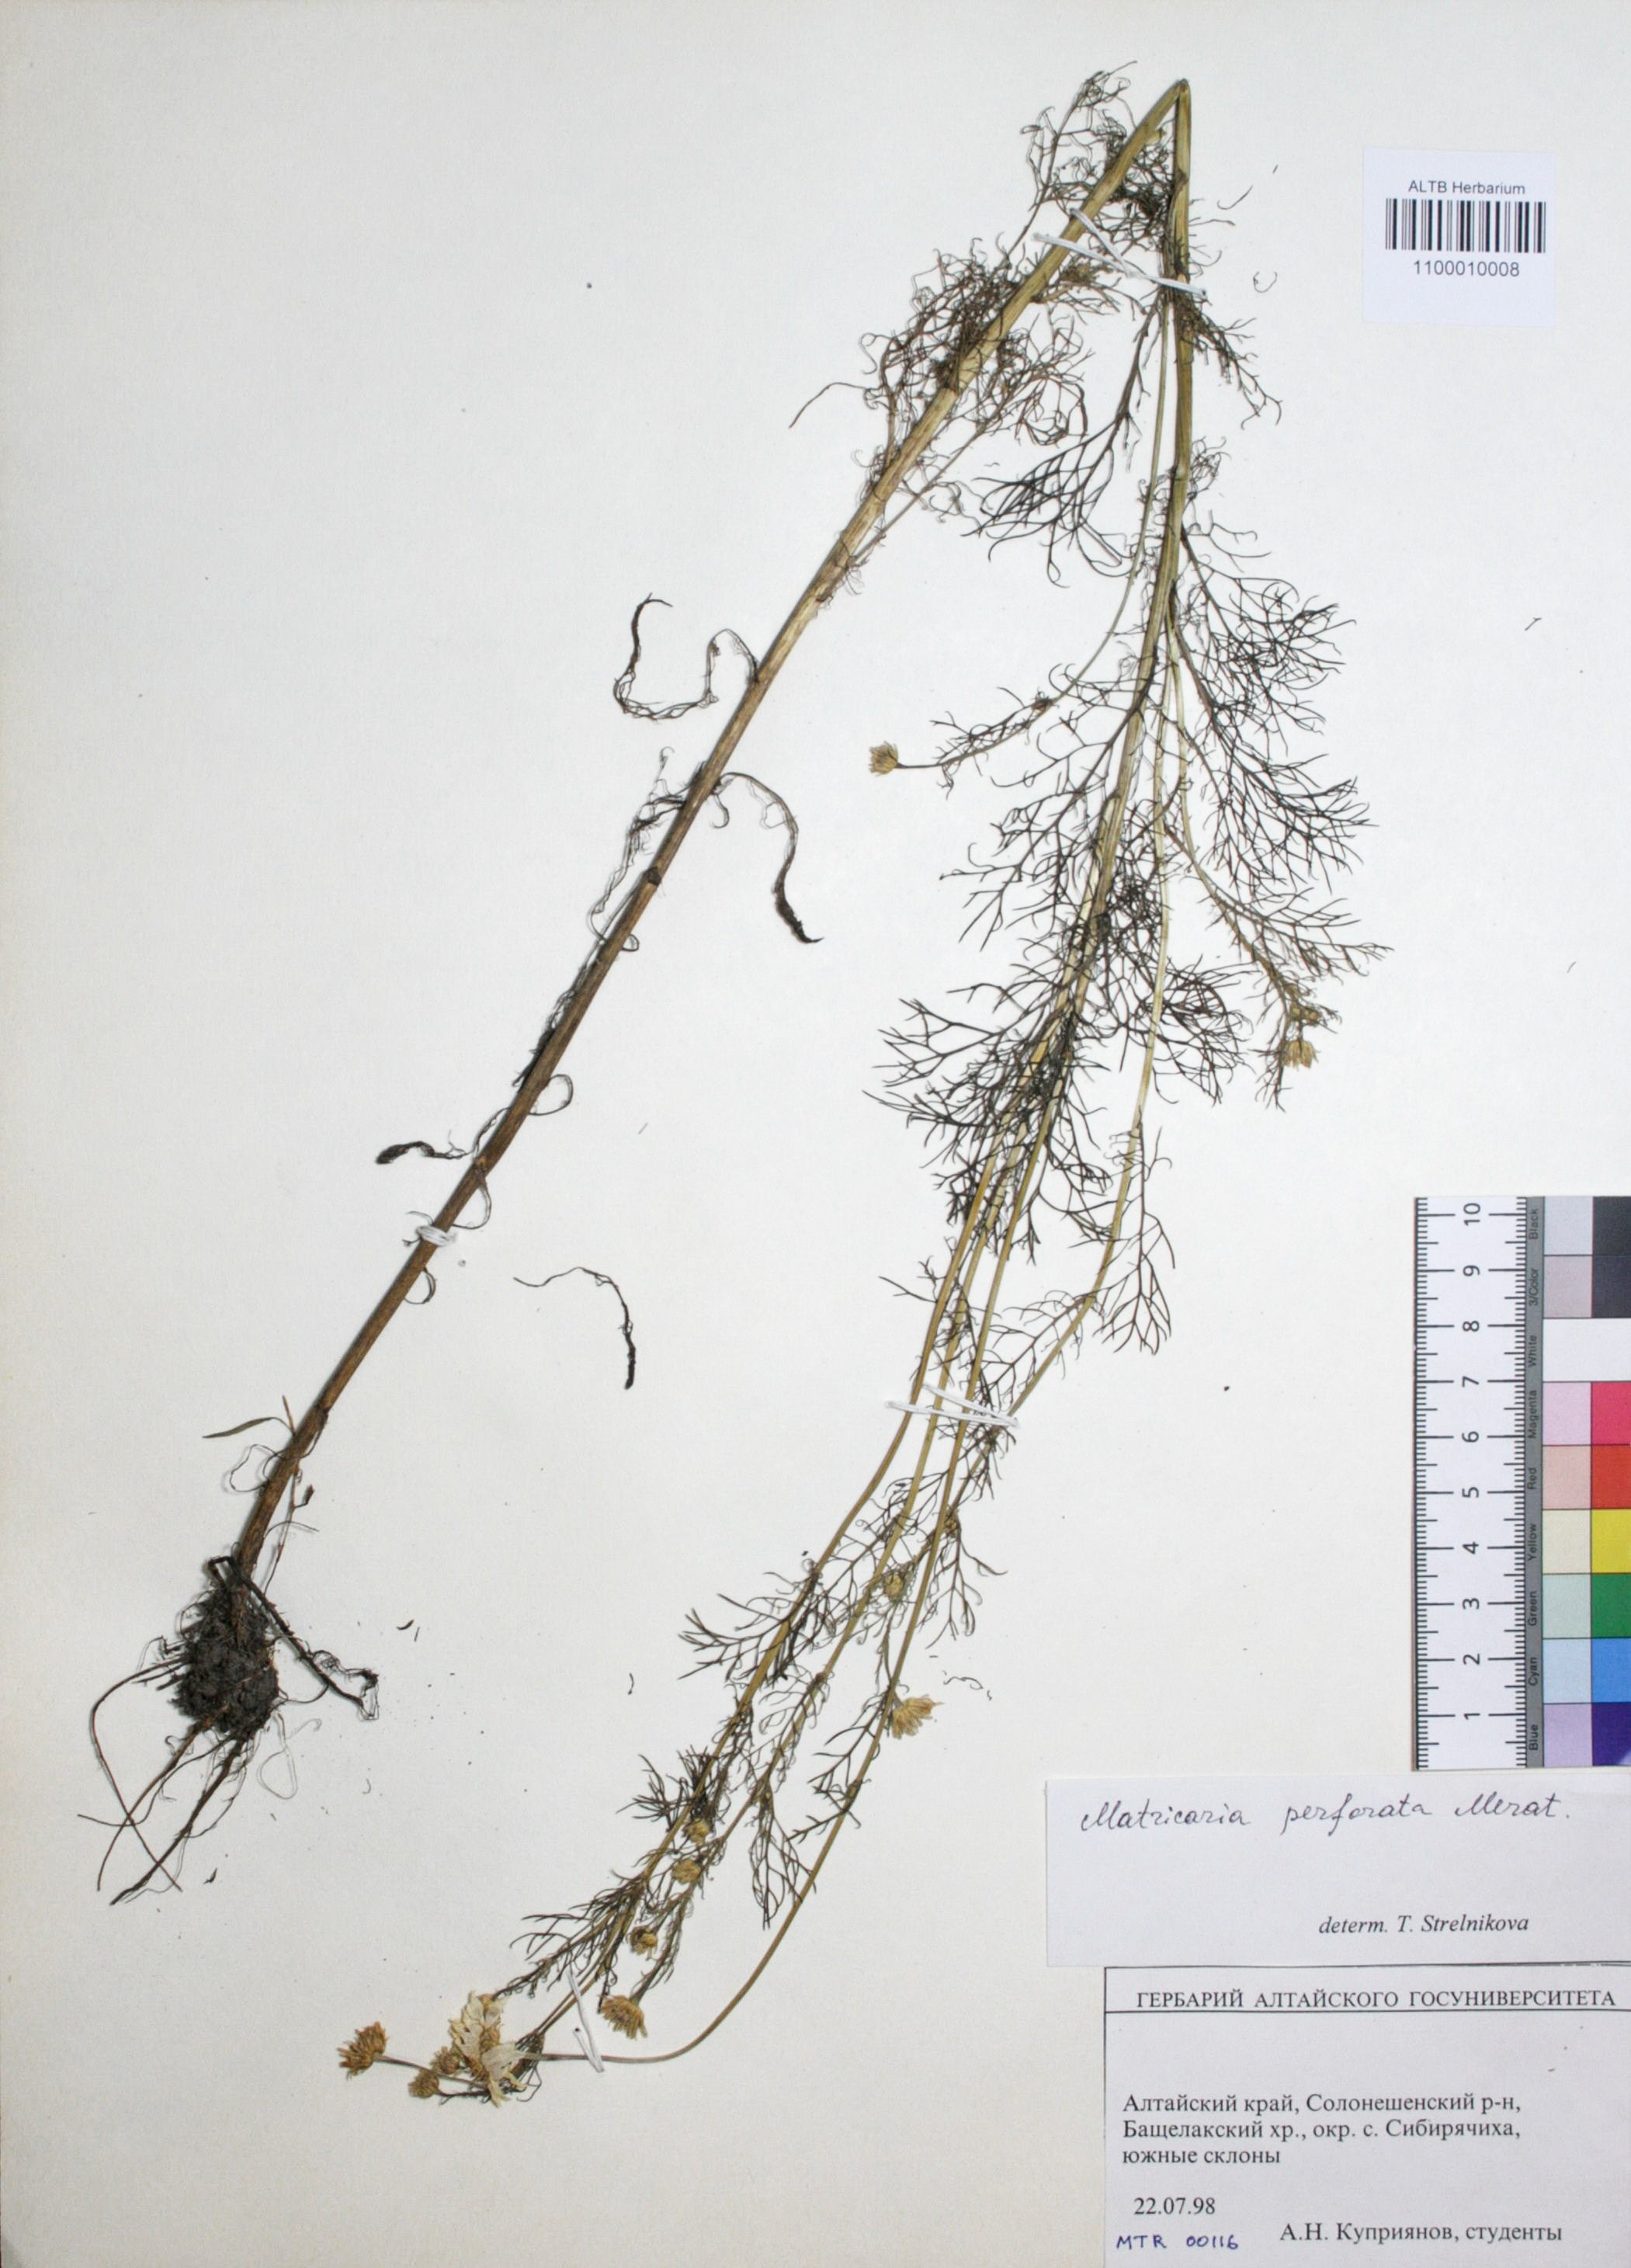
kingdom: Plantae
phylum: Tracheophyta
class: Magnoliopsida
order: Asterales
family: Asteraceae
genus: Tripleurospermum
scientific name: Tripleurospermum inodorum
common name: Scentless mayweed
